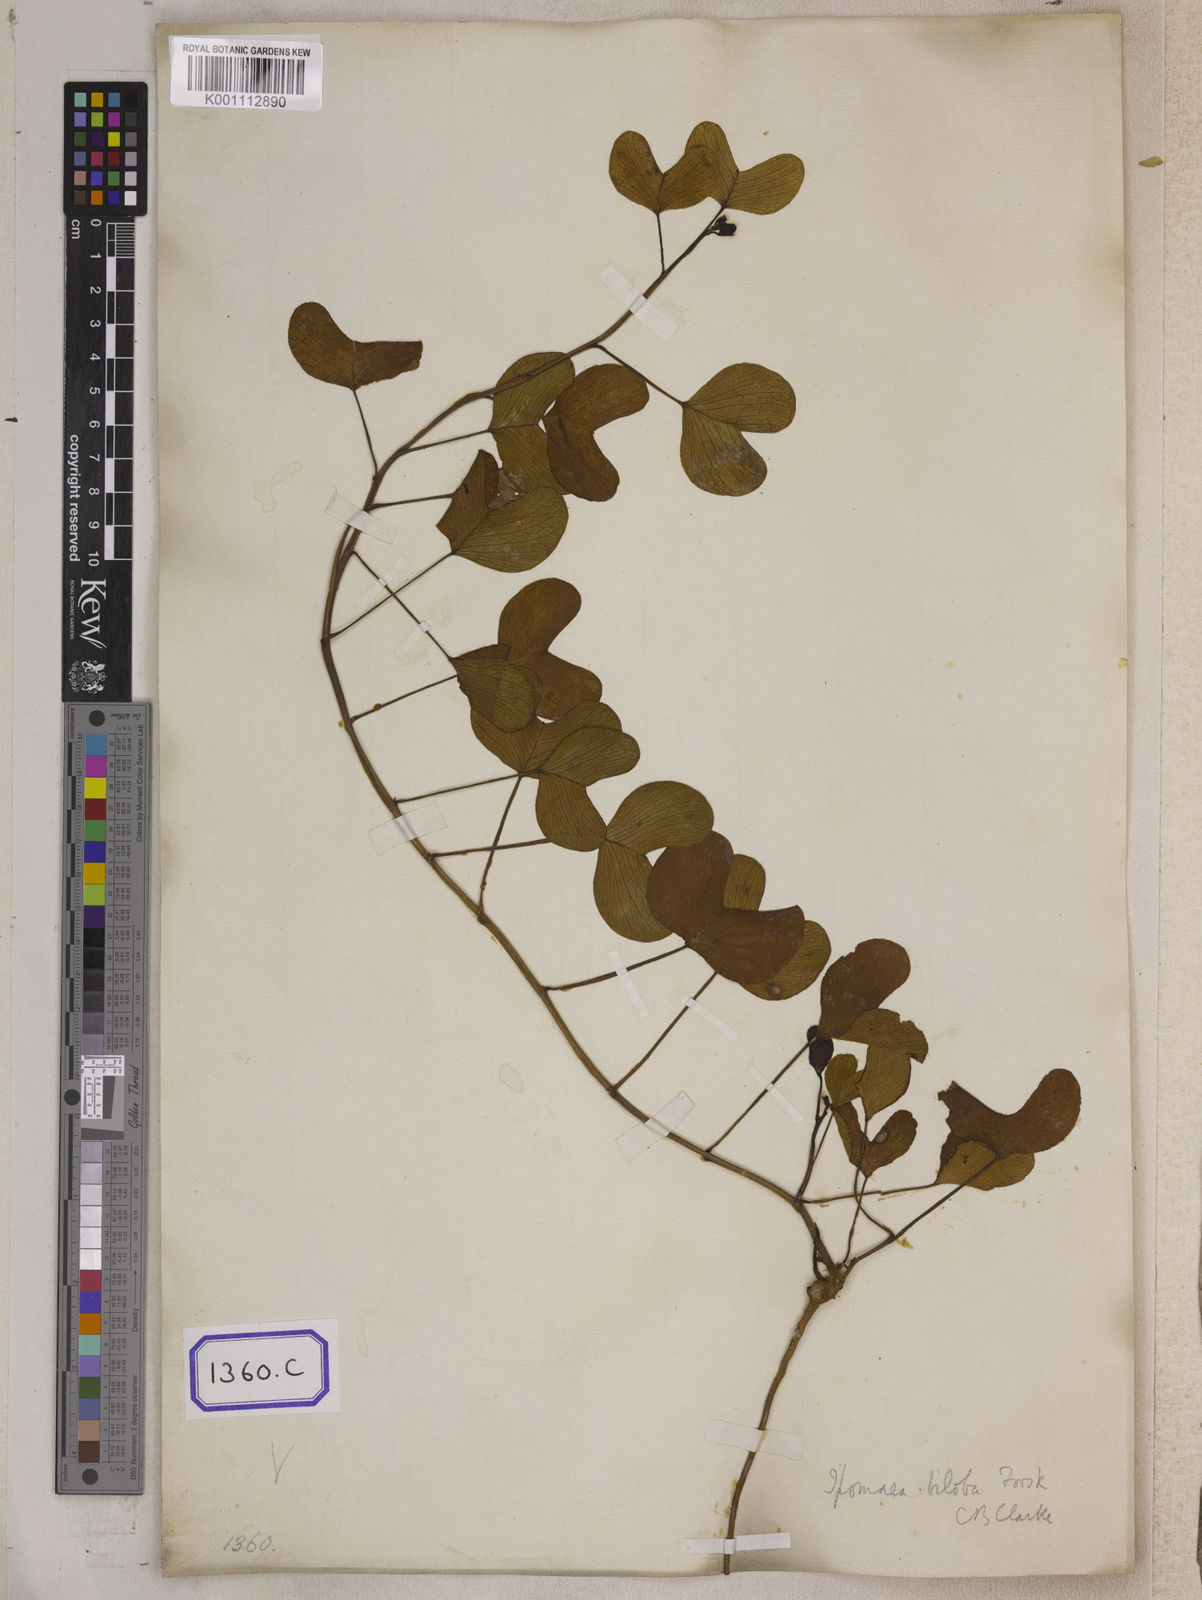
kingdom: Plantae
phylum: Tracheophyta
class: Magnoliopsida
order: Solanales
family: Convolvulaceae
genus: Ipomoea
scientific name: Ipomoea pes-caprae
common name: Beach morning glory
